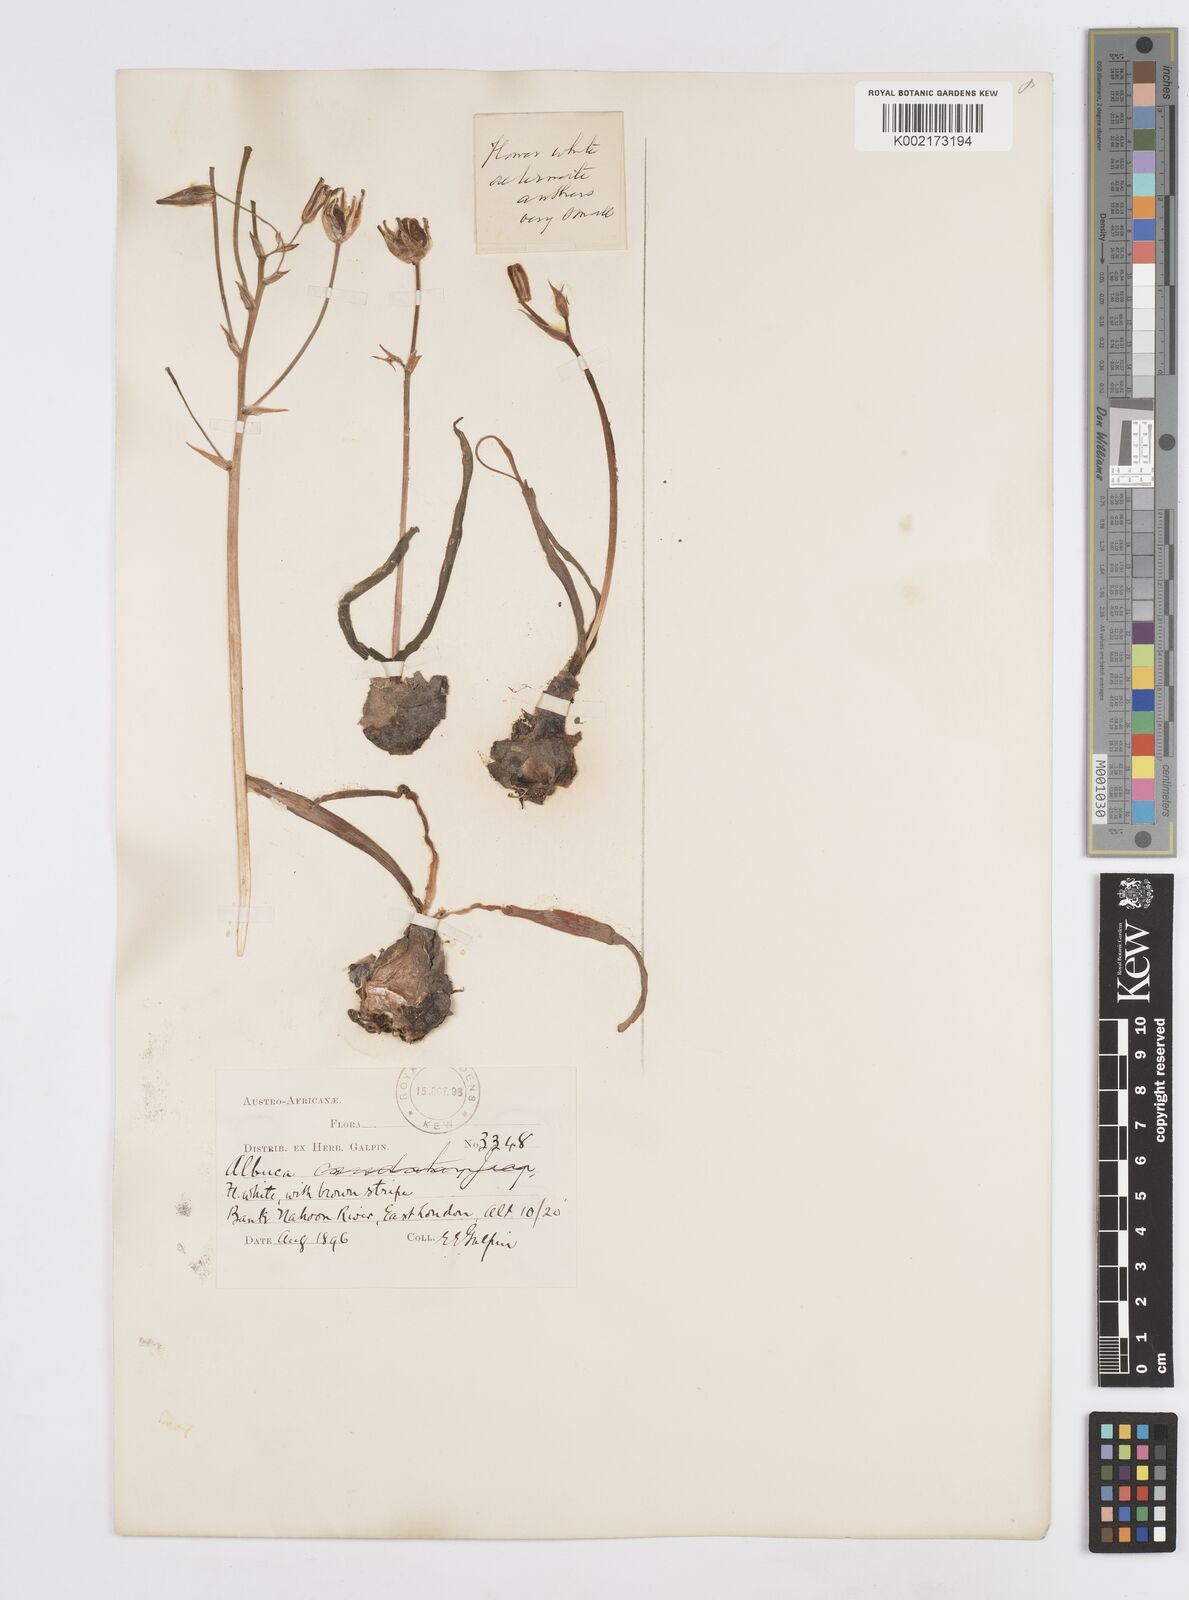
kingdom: Plantae
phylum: Tracheophyta
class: Liliopsida
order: Asparagales
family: Asparagaceae
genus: Albuca
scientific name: Albuca
